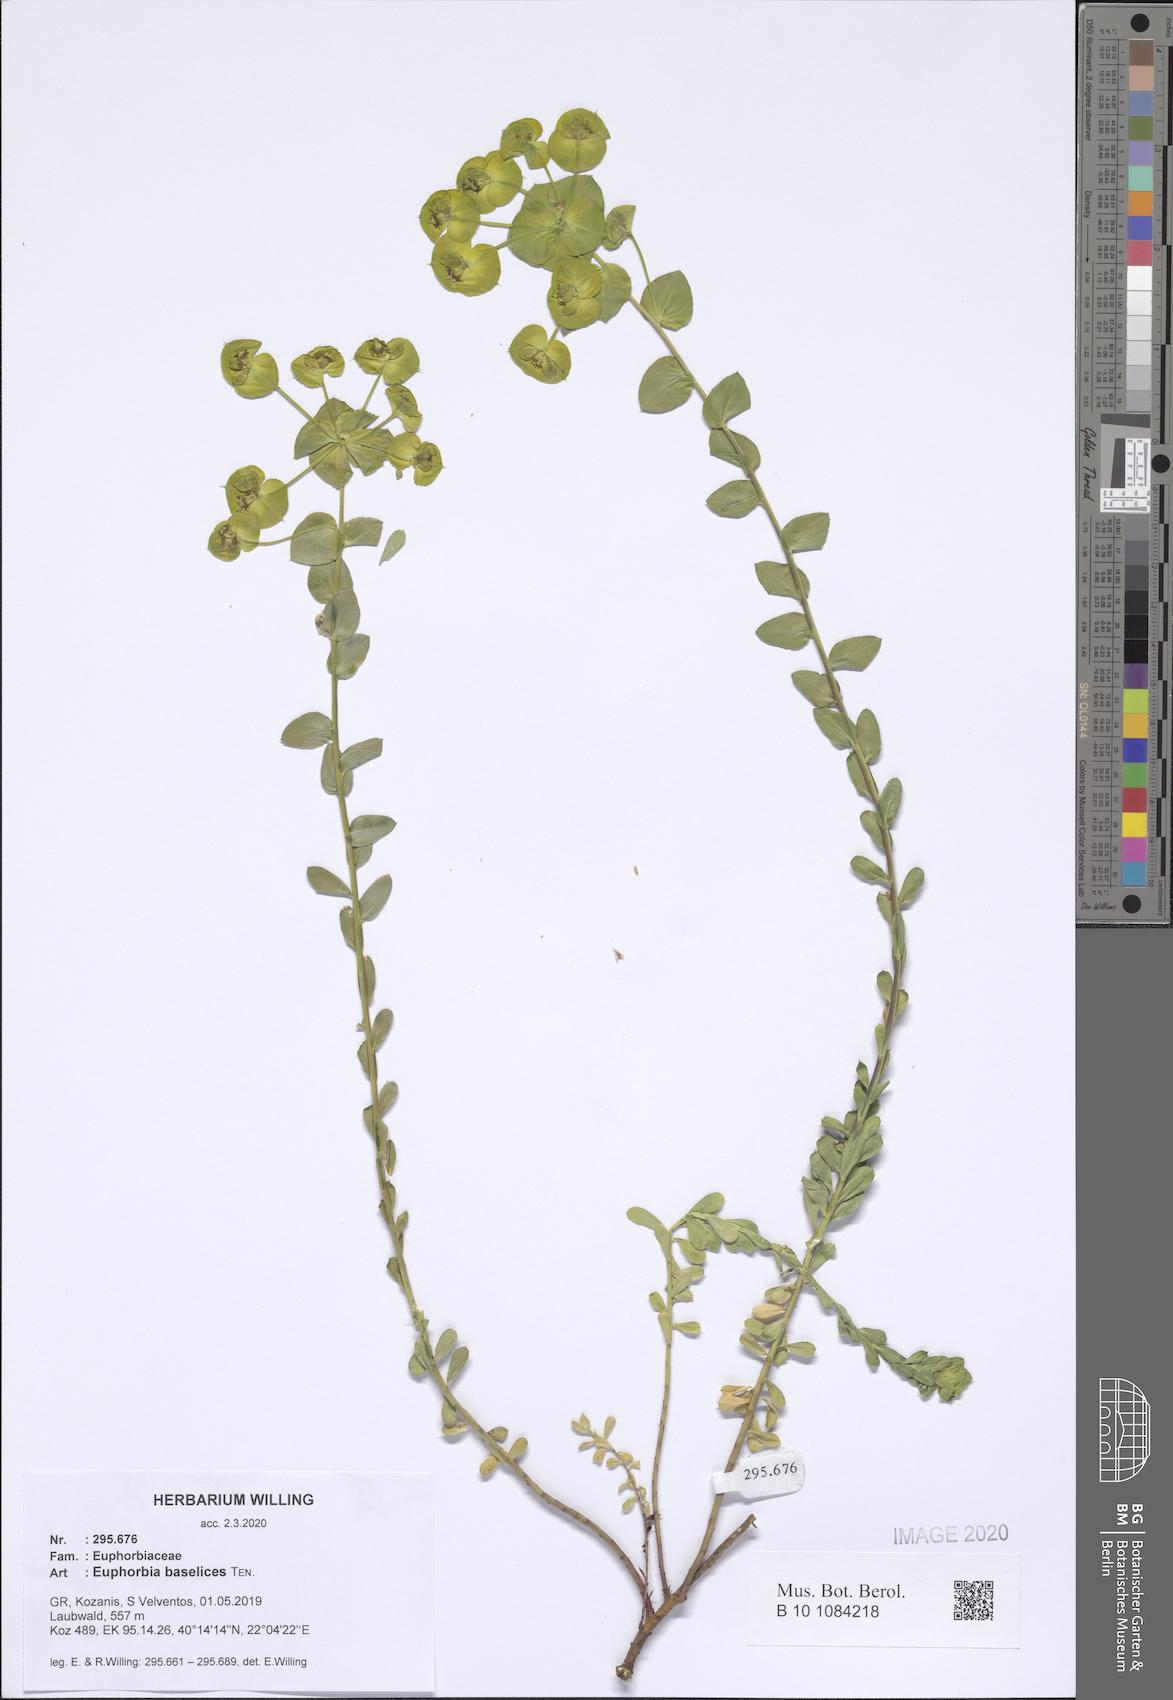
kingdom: Plantae
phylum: Tracheophyta
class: Magnoliopsida
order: Malpighiales
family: Euphorbiaceae
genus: Euphorbia
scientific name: Euphorbia barrelieri
